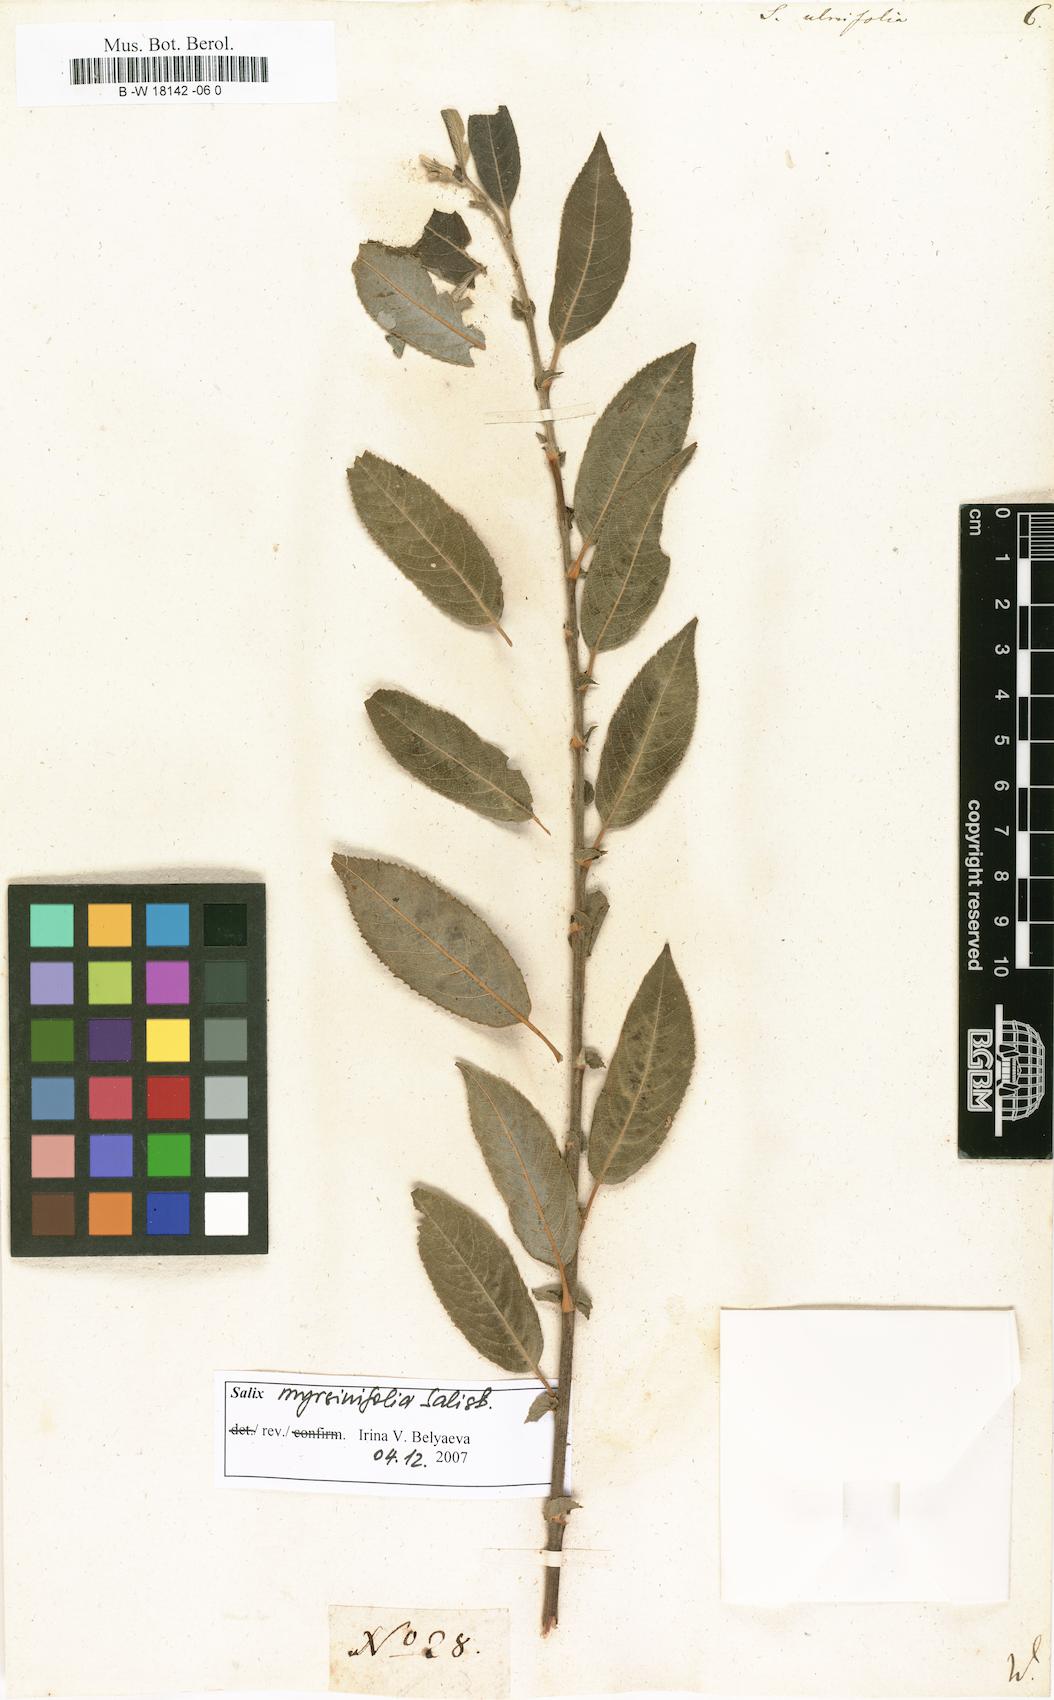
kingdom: Plantae
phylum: Tracheophyta
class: Magnoliopsida
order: Malpighiales
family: Salicaceae
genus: Salix
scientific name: Salix ulmifolia
